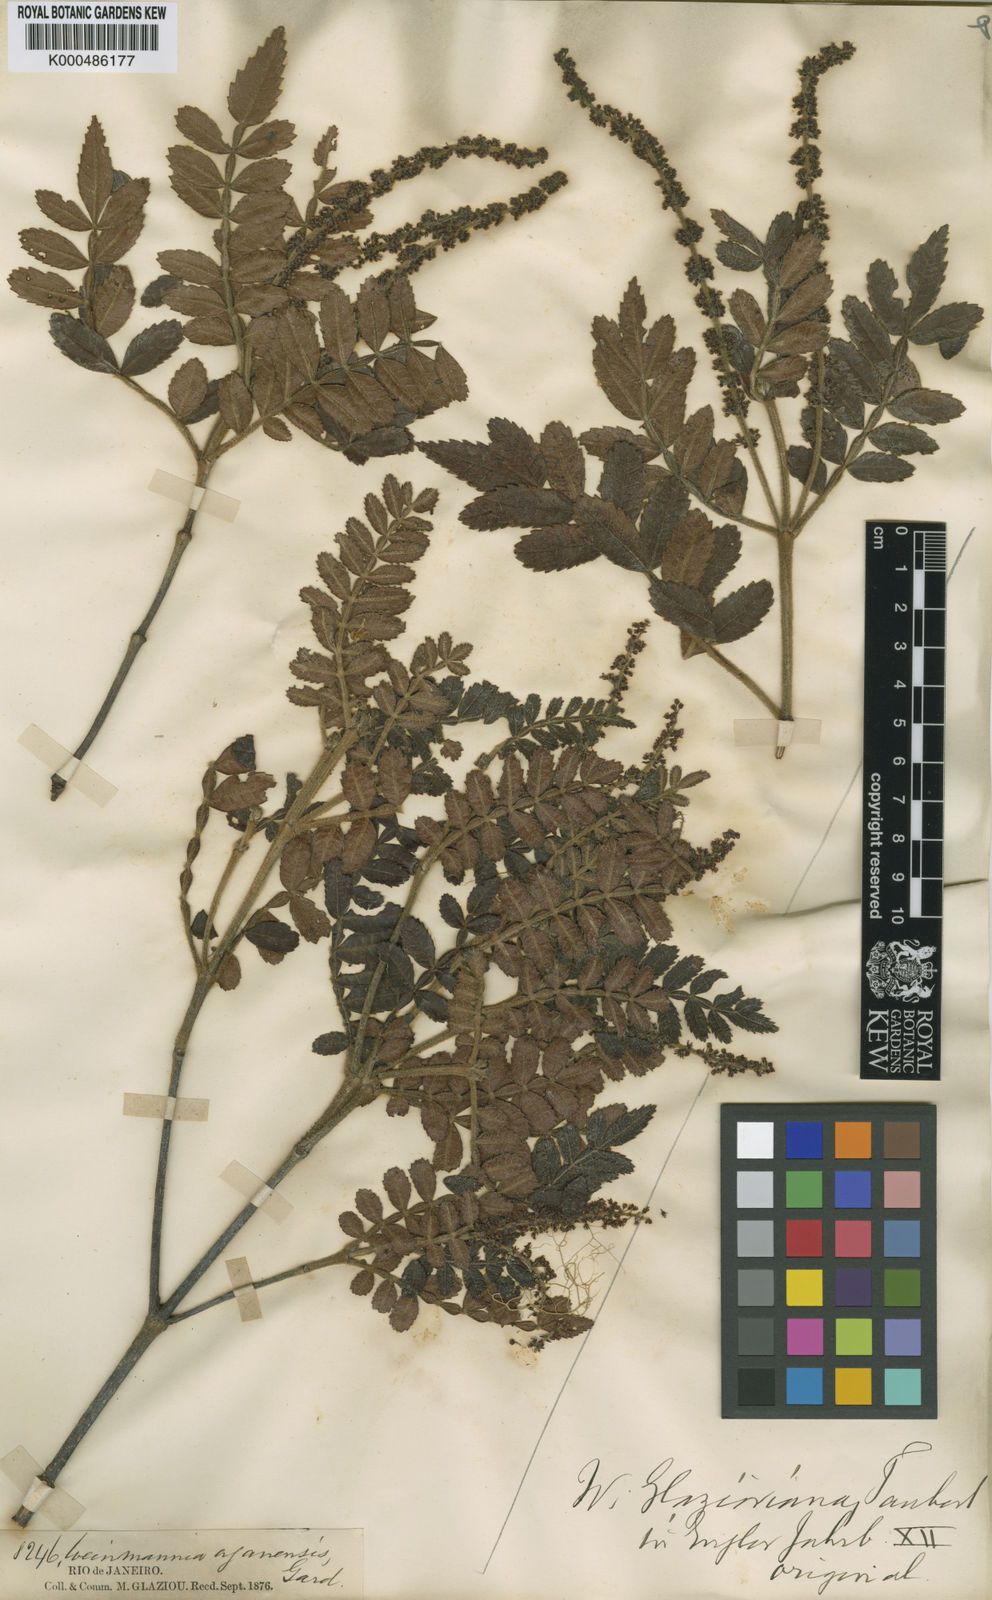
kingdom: Plantae
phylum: Tracheophyta
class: Magnoliopsida
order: Oxalidales
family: Cunoniaceae
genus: Weinmannia
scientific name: Weinmannia organensis
